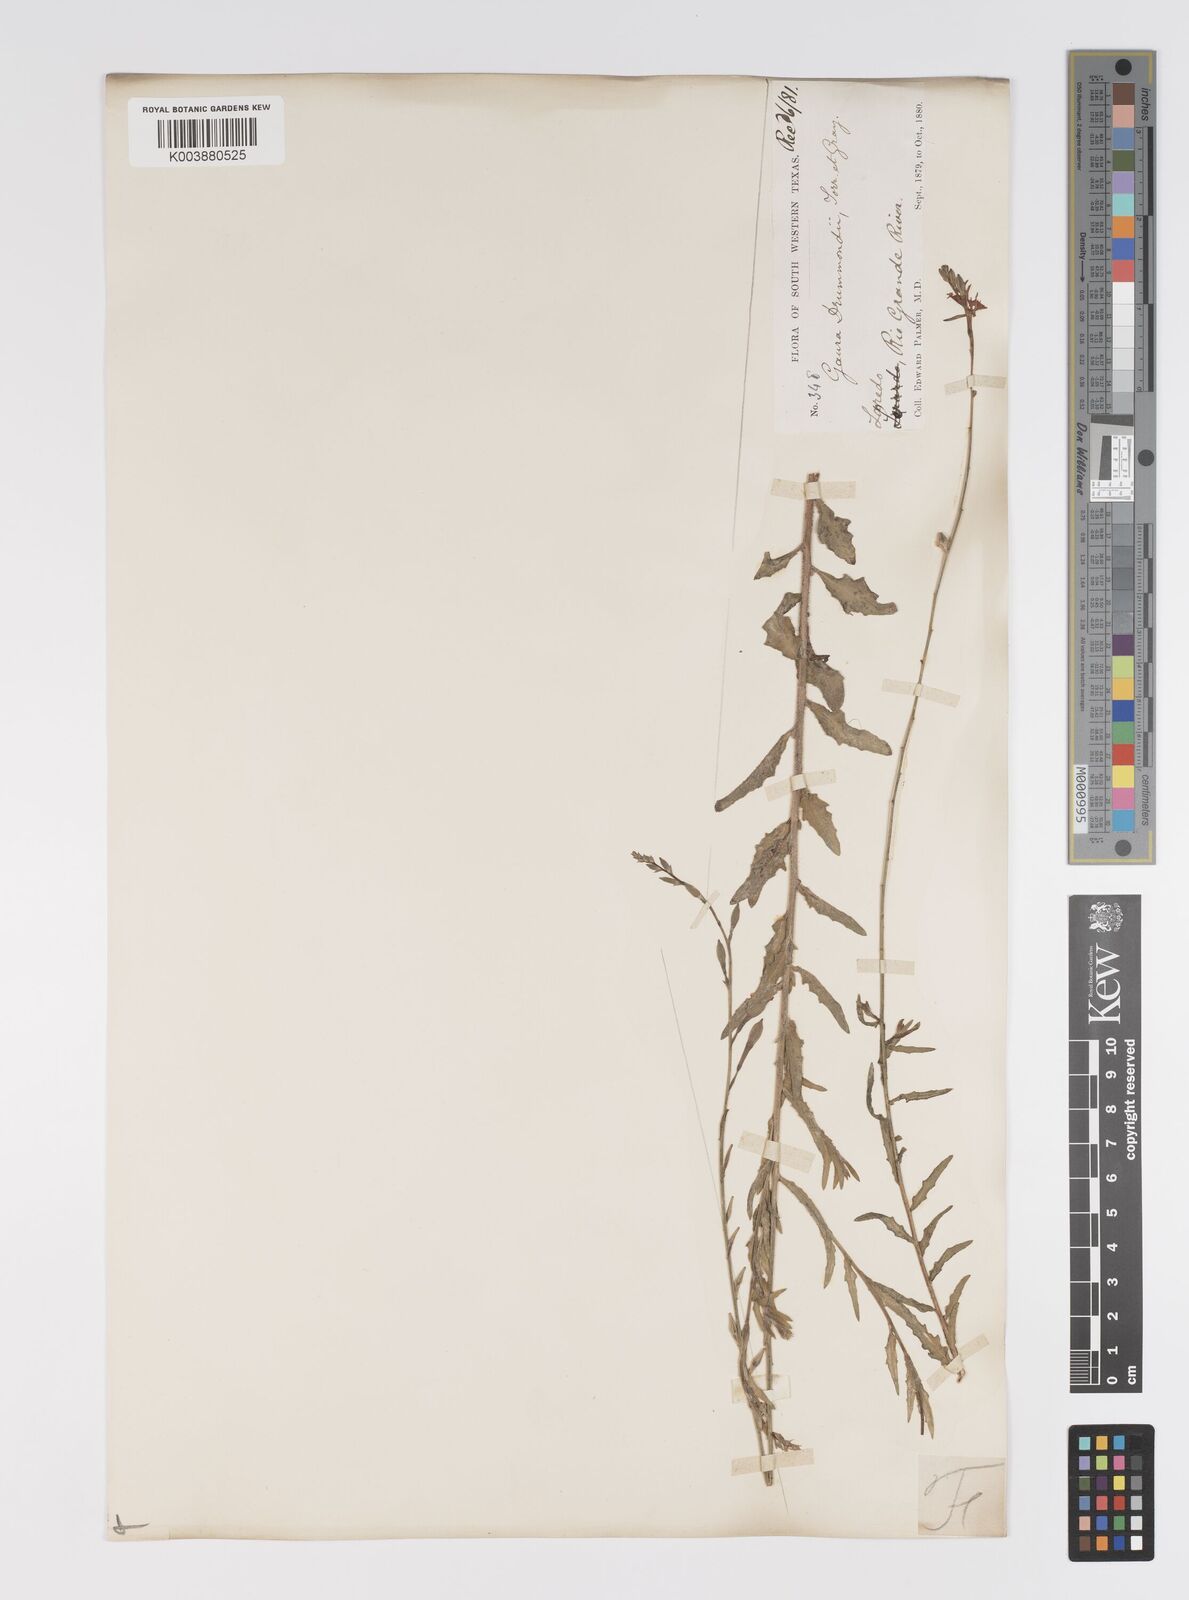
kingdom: Plantae
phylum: Tracheophyta
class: Magnoliopsida
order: Myrtales
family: Onagraceae
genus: Oenothera
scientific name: Oenothera hispida
